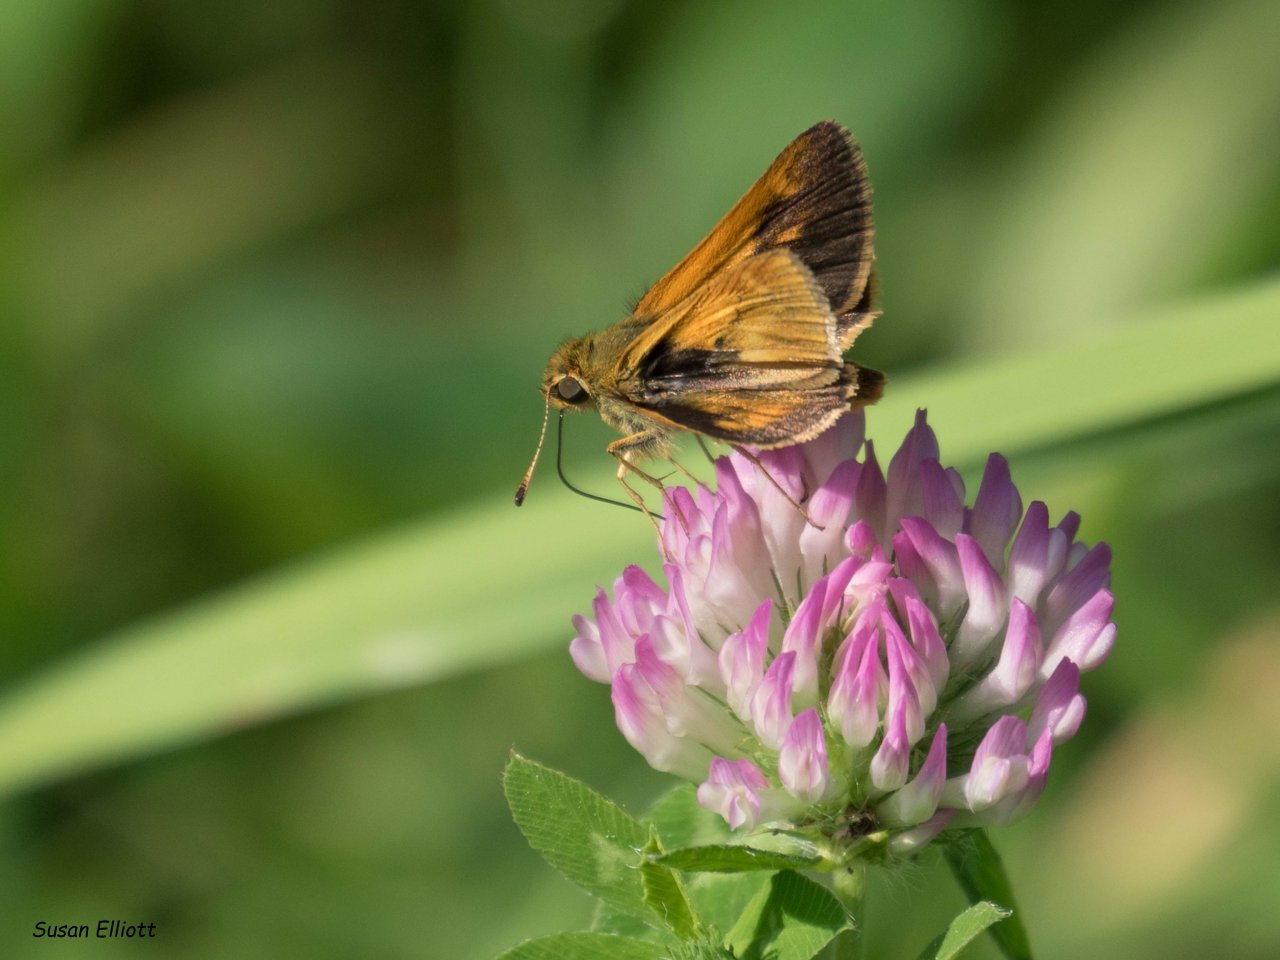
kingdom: Animalia
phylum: Arthropoda
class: Insecta
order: Lepidoptera
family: Hesperiidae
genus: Polites
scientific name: Polites
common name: Long Dash Skipper
